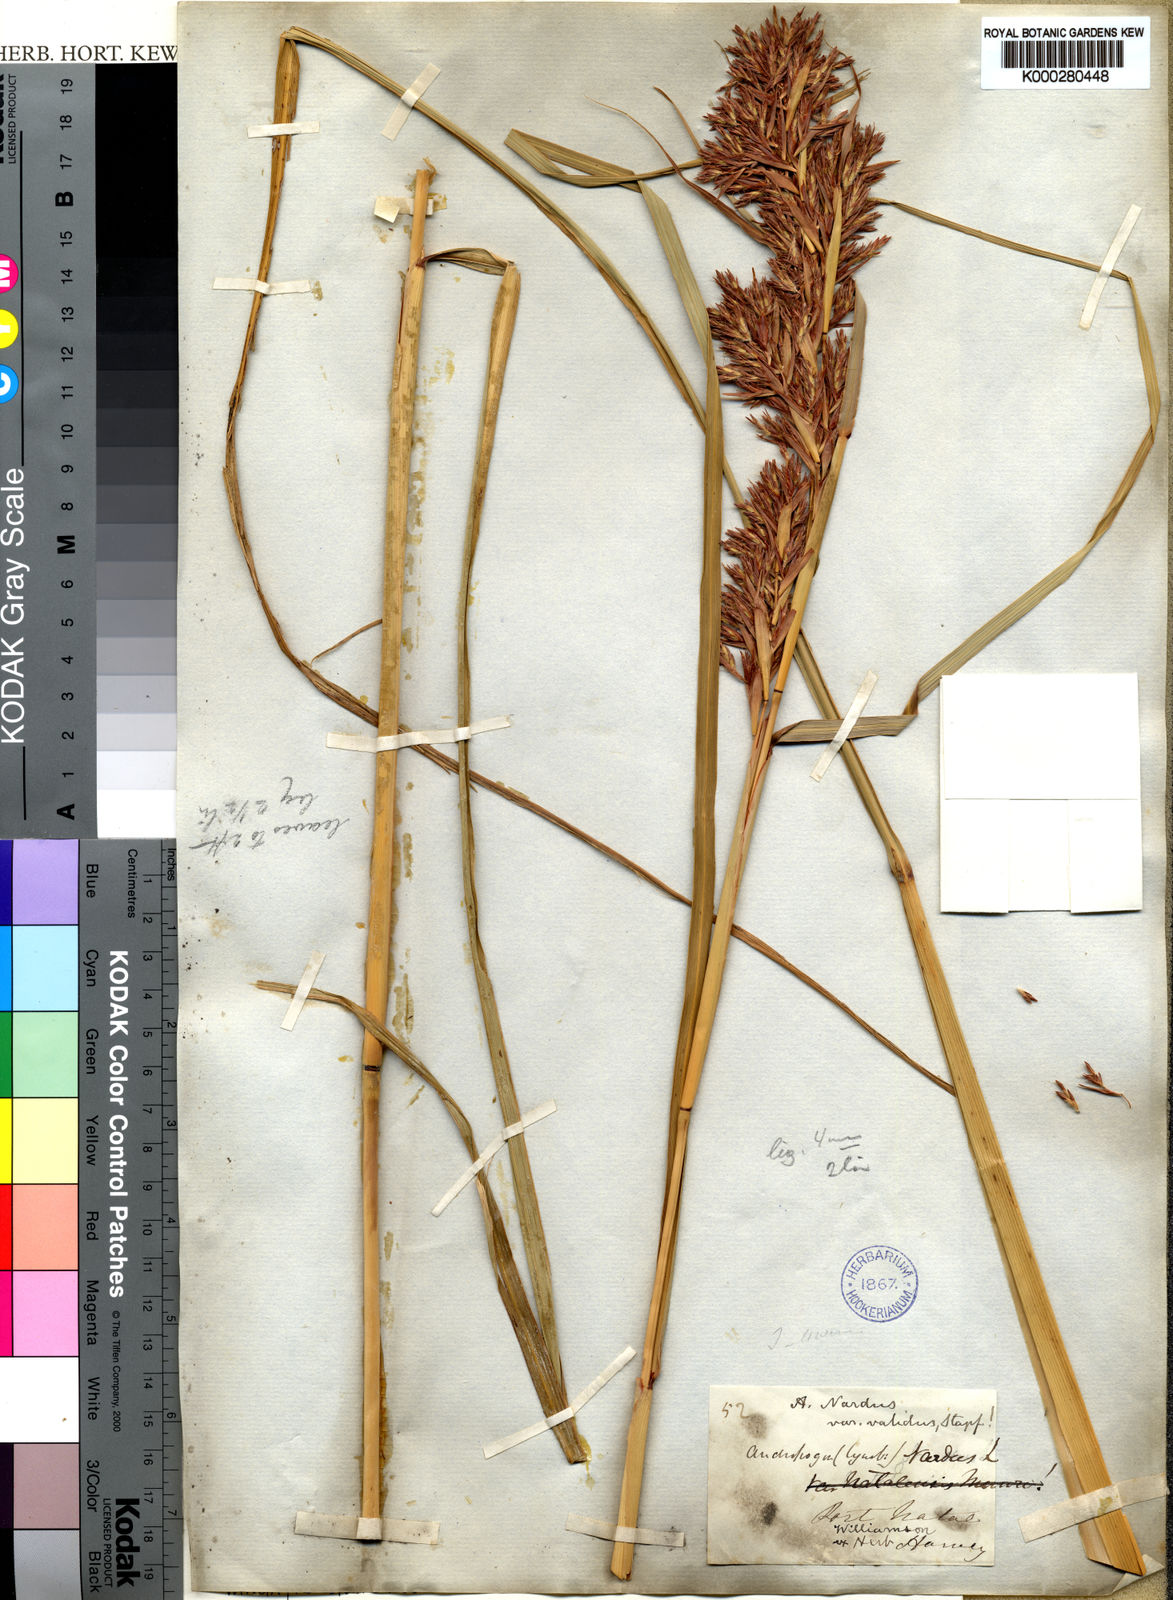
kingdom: Plantae
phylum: Tracheophyta
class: Liliopsida
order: Poales
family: Poaceae
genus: Cymbopogon
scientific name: Cymbopogon nardus
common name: Giant turpentine grass
